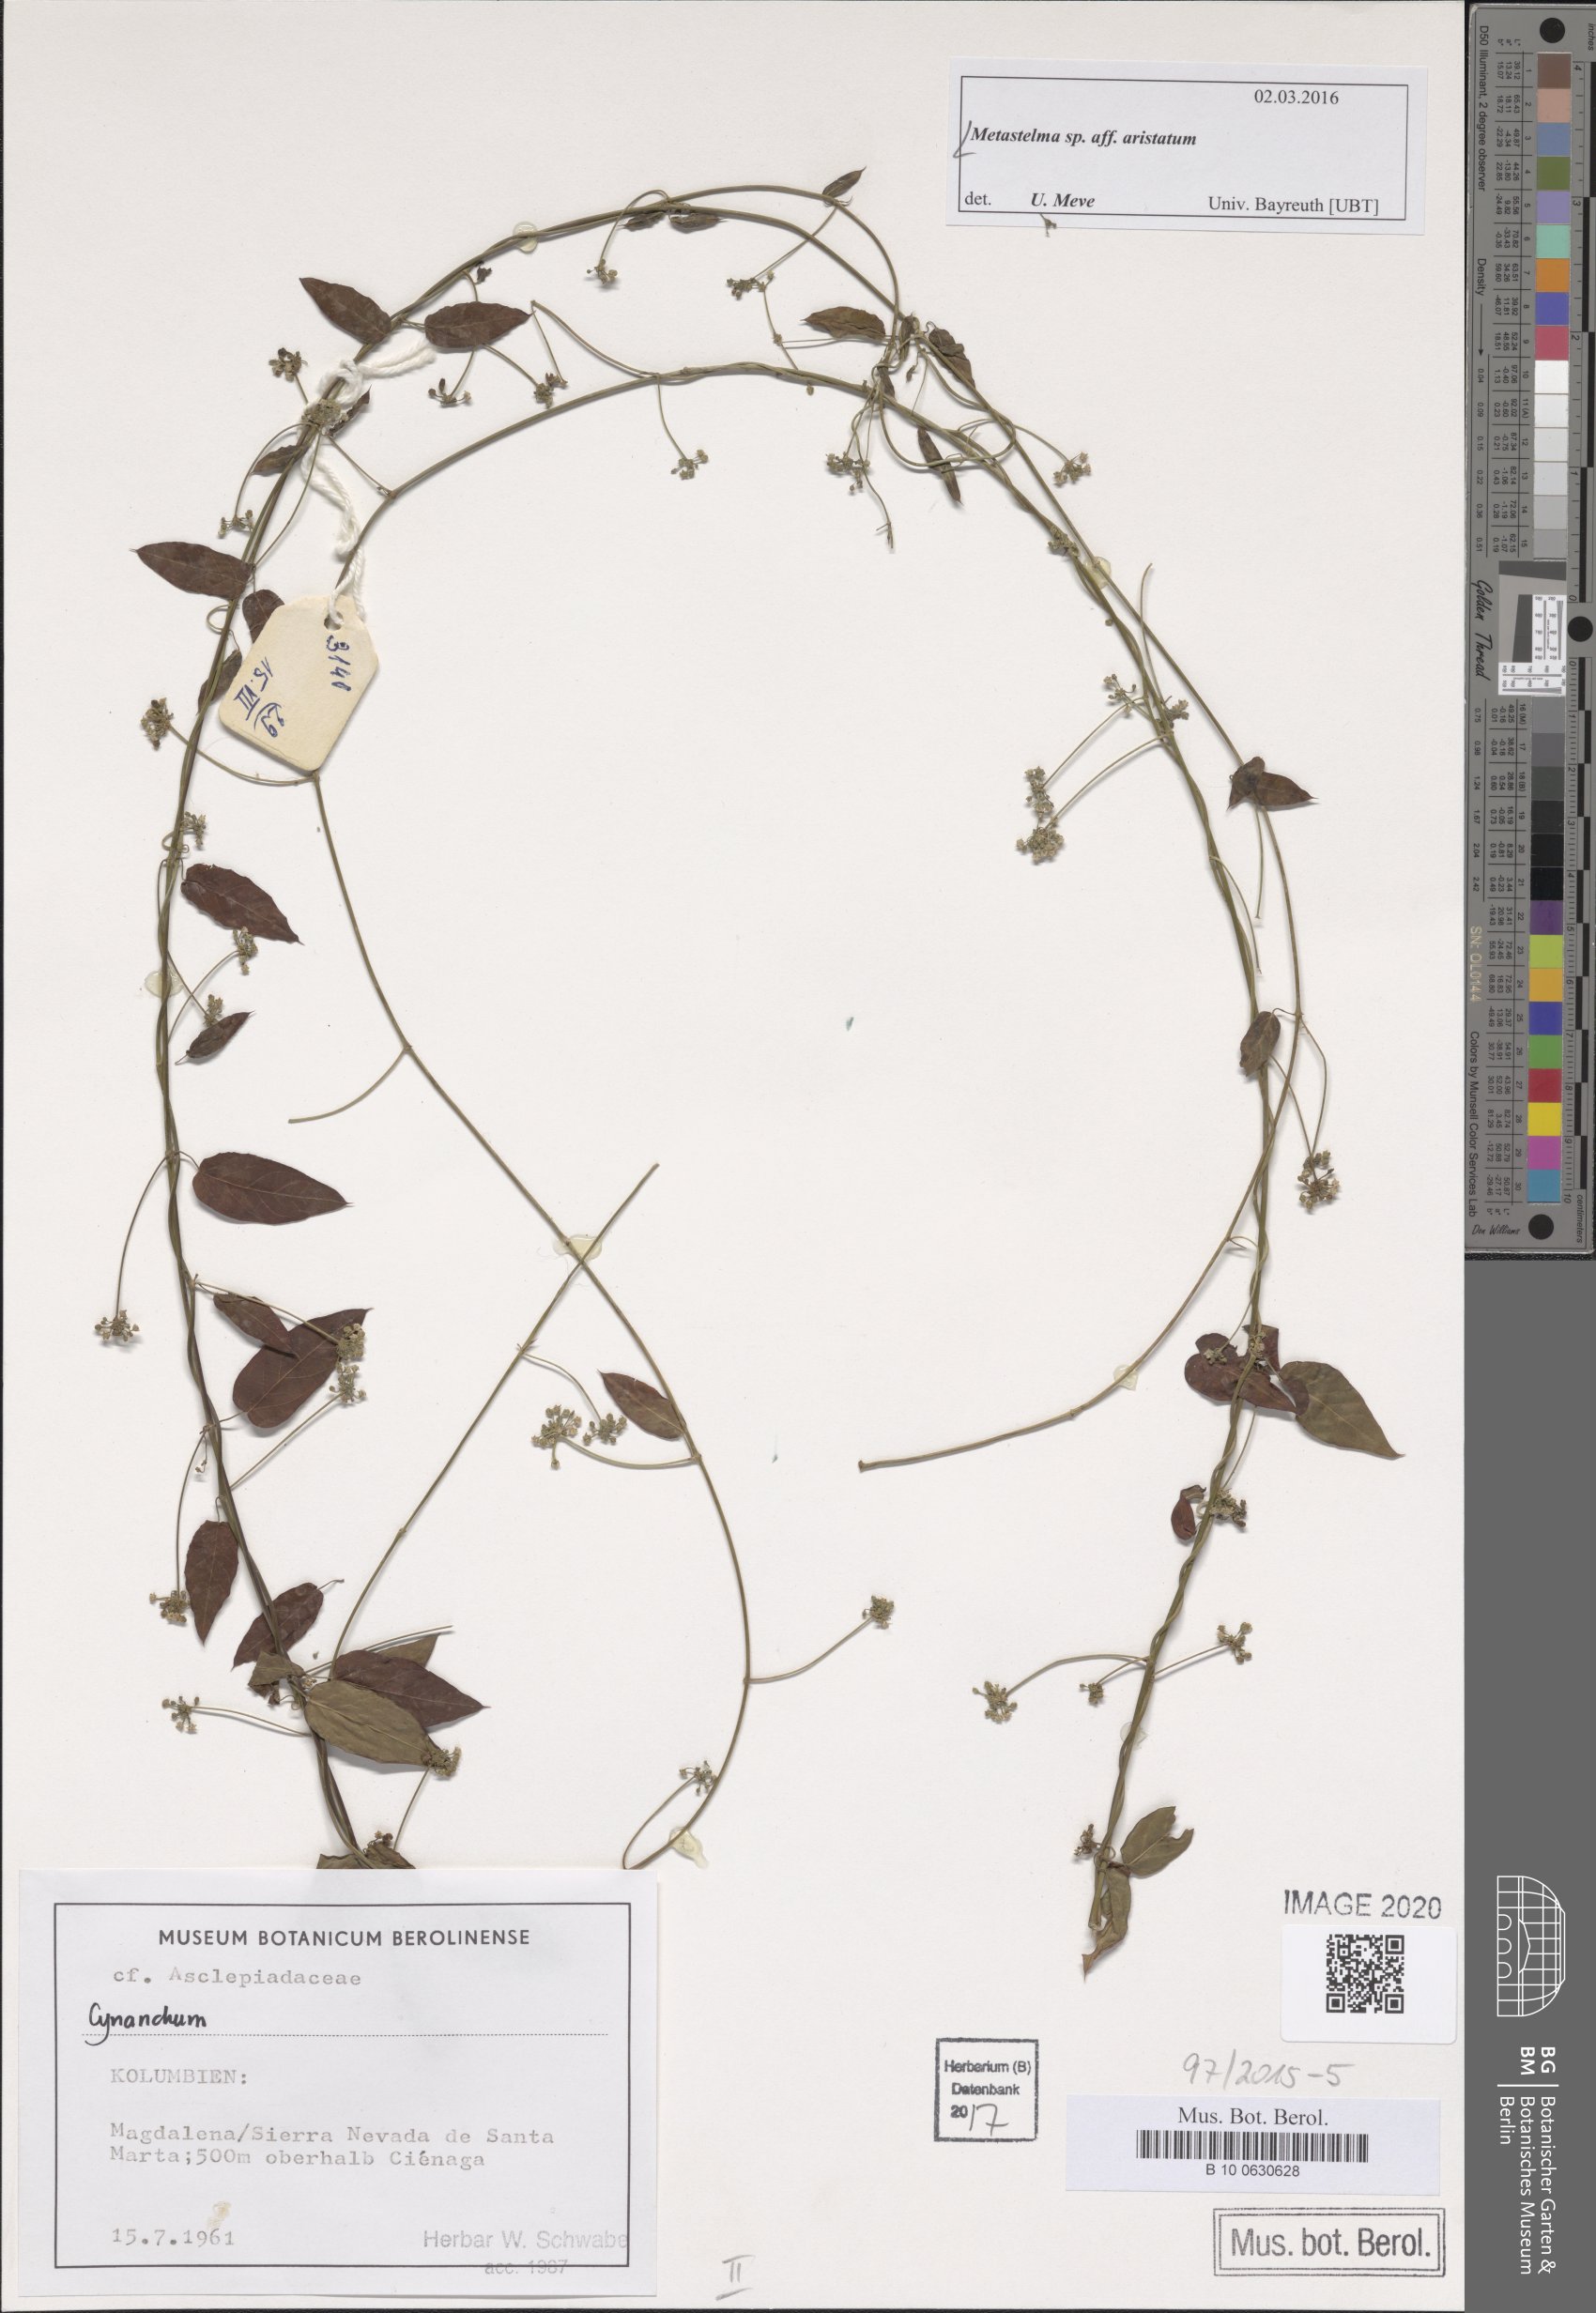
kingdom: Plantae
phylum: Tracheophyta
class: Magnoliopsida
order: Gentianales
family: Apocynaceae
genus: Metastelma
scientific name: Metastelma parviflorum
